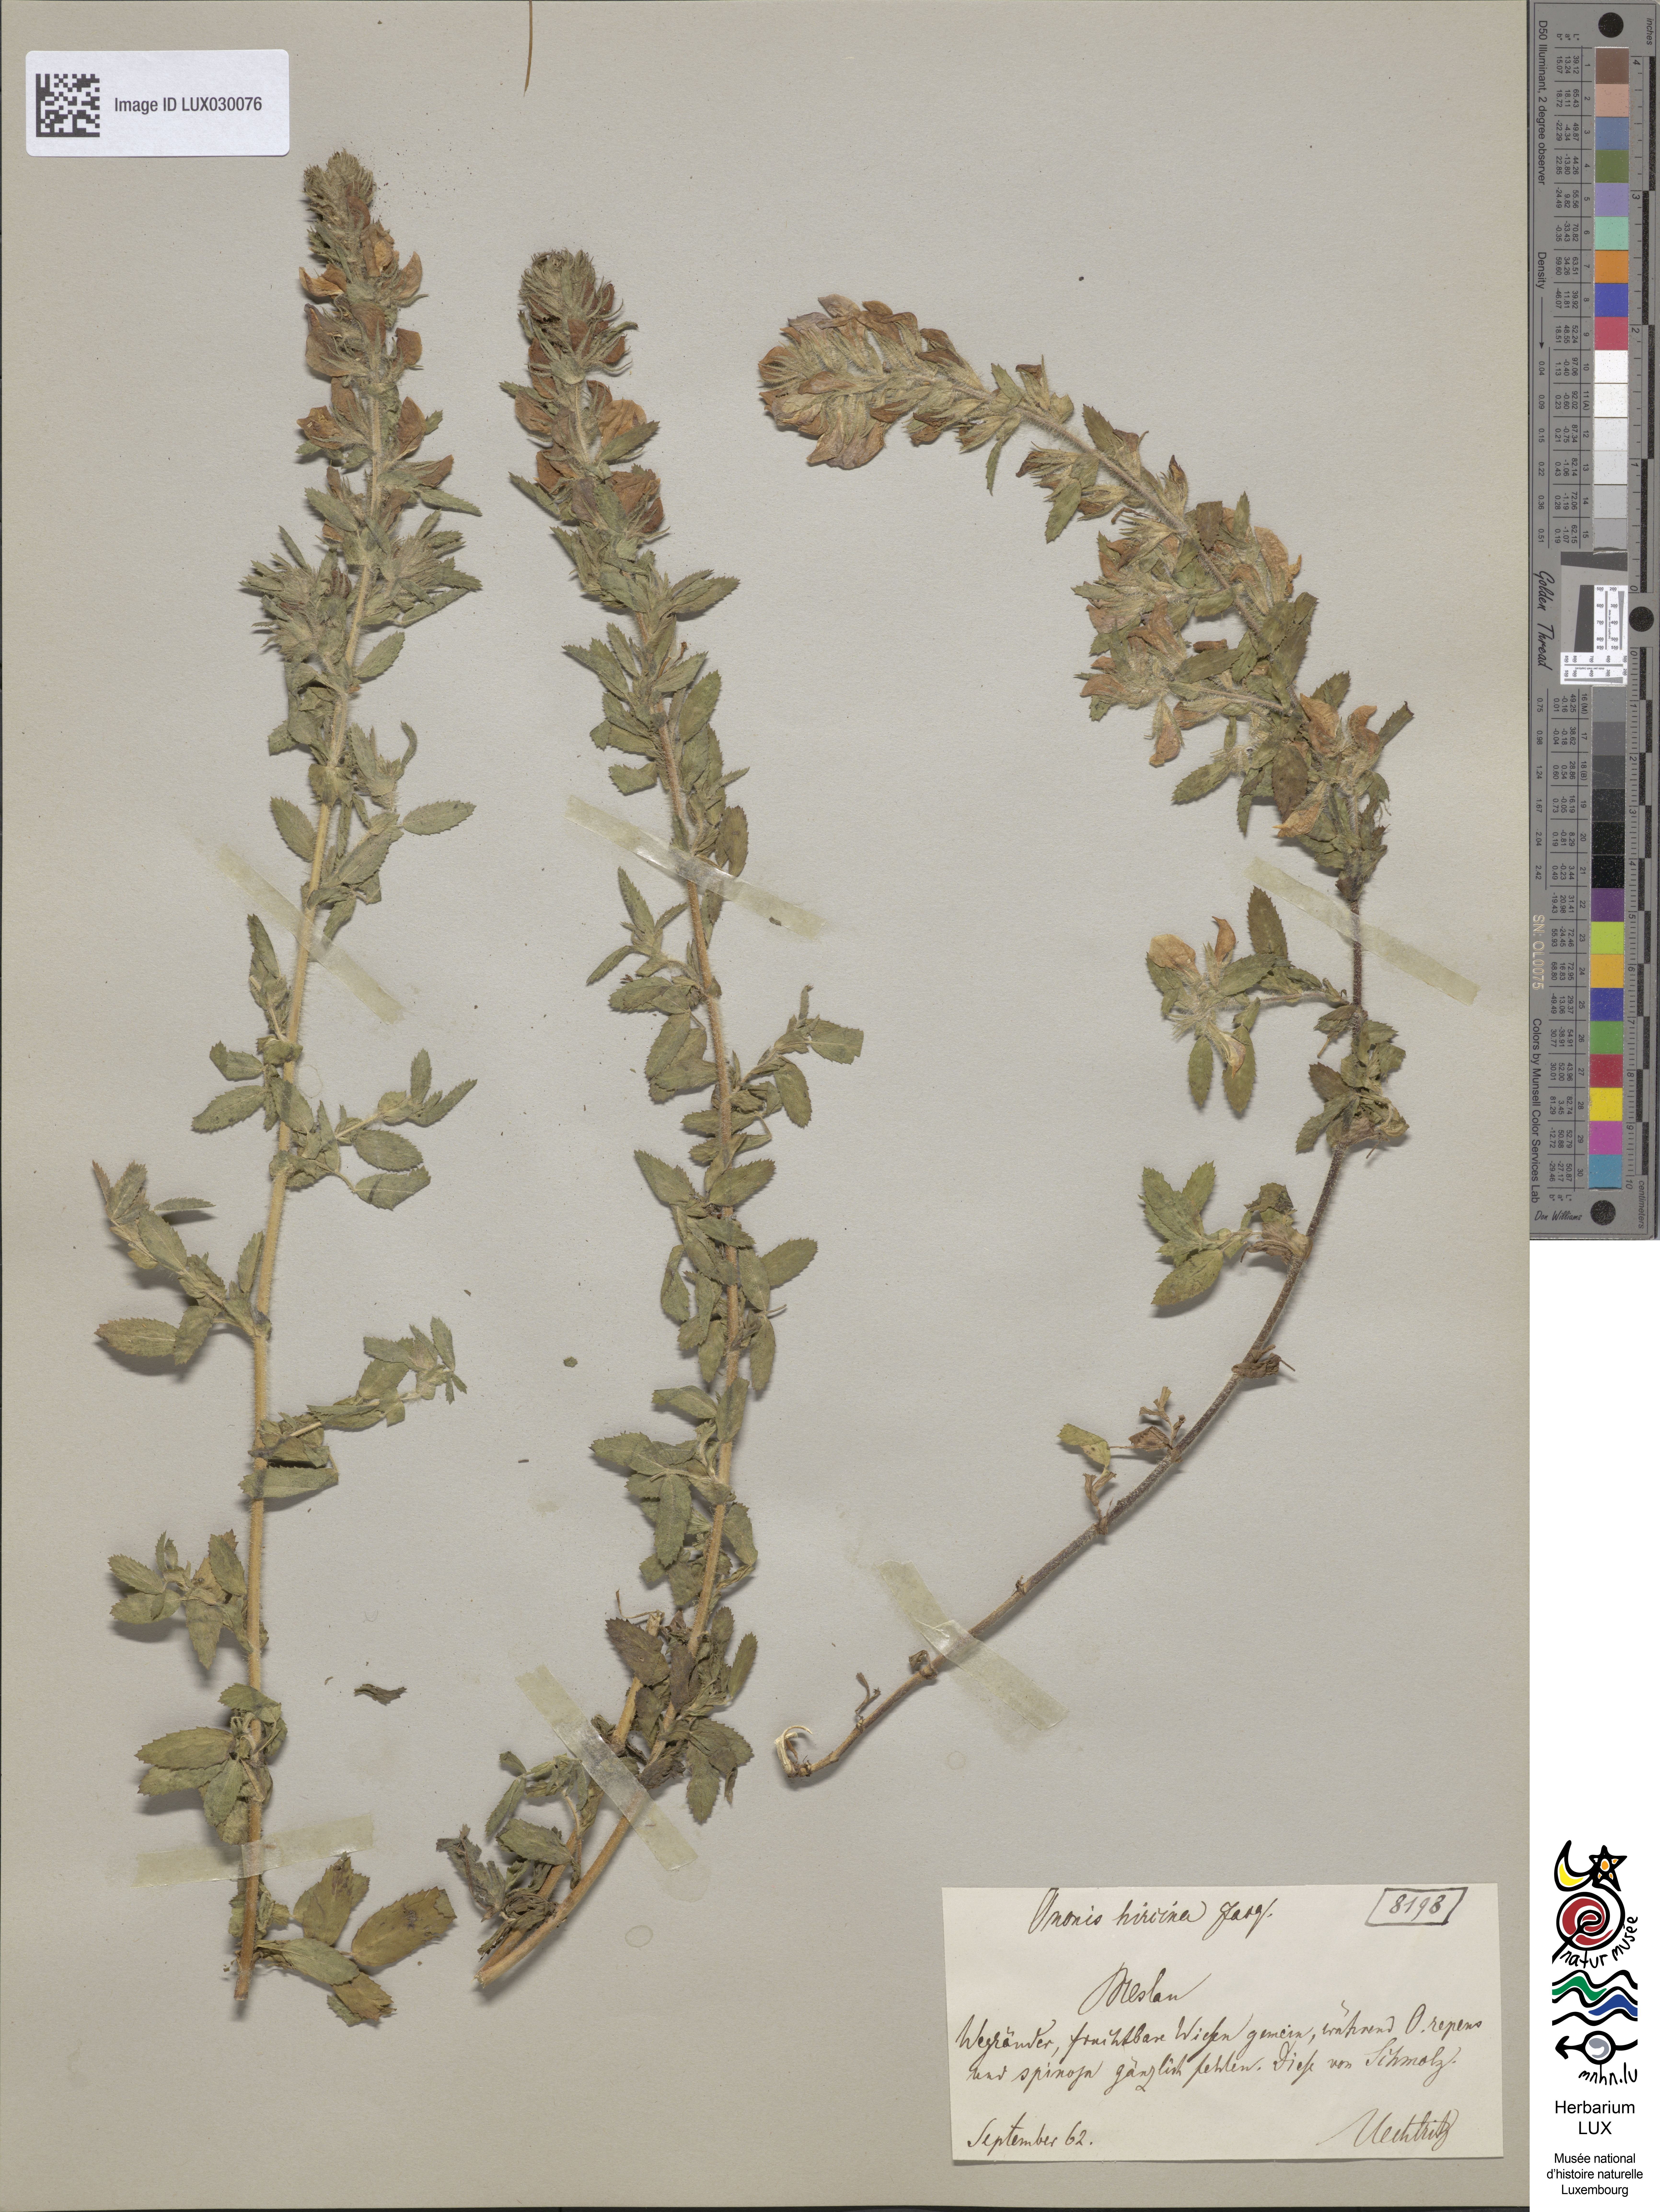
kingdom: Plantae
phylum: Tracheophyta
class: Magnoliopsida
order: Fabales
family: Fabaceae
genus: Ononis
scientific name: Ononis arvensis
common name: Field restharrow
